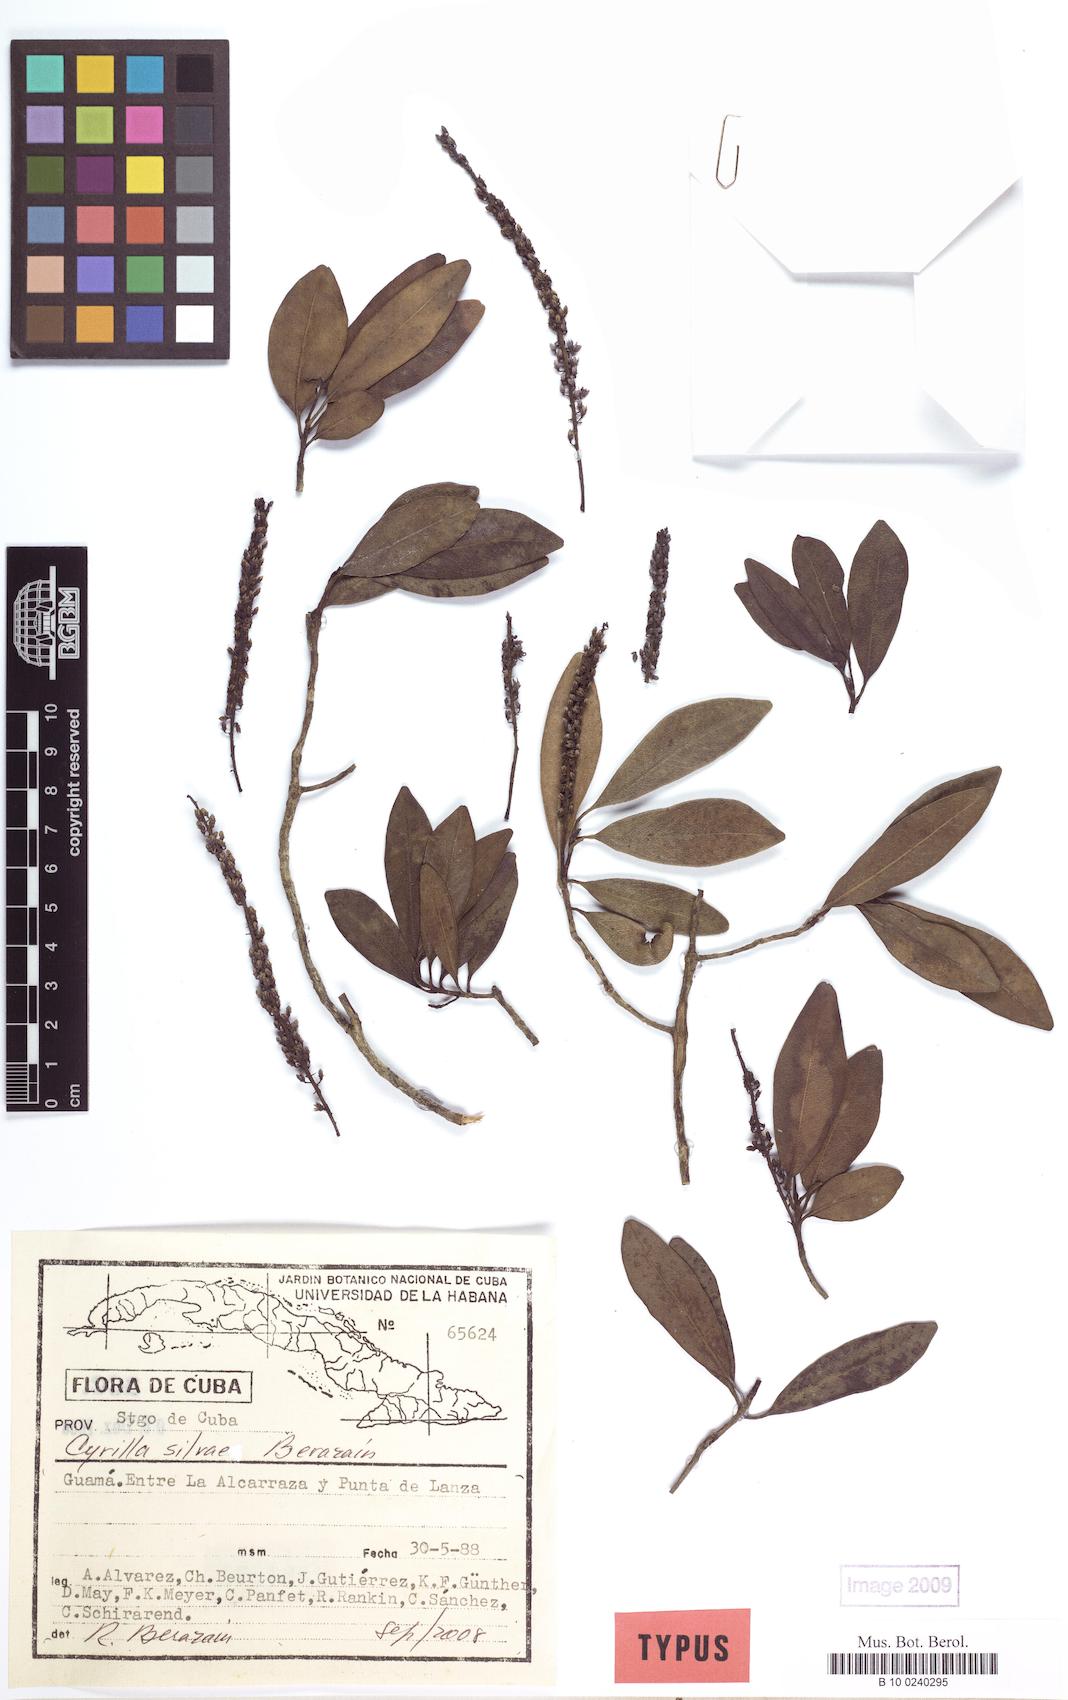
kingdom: Plantae
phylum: Tracheophyta
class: Magnoliopsida
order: Ericales
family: Cyrillaceae
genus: Cyrilla
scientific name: Cyrilla silvae
